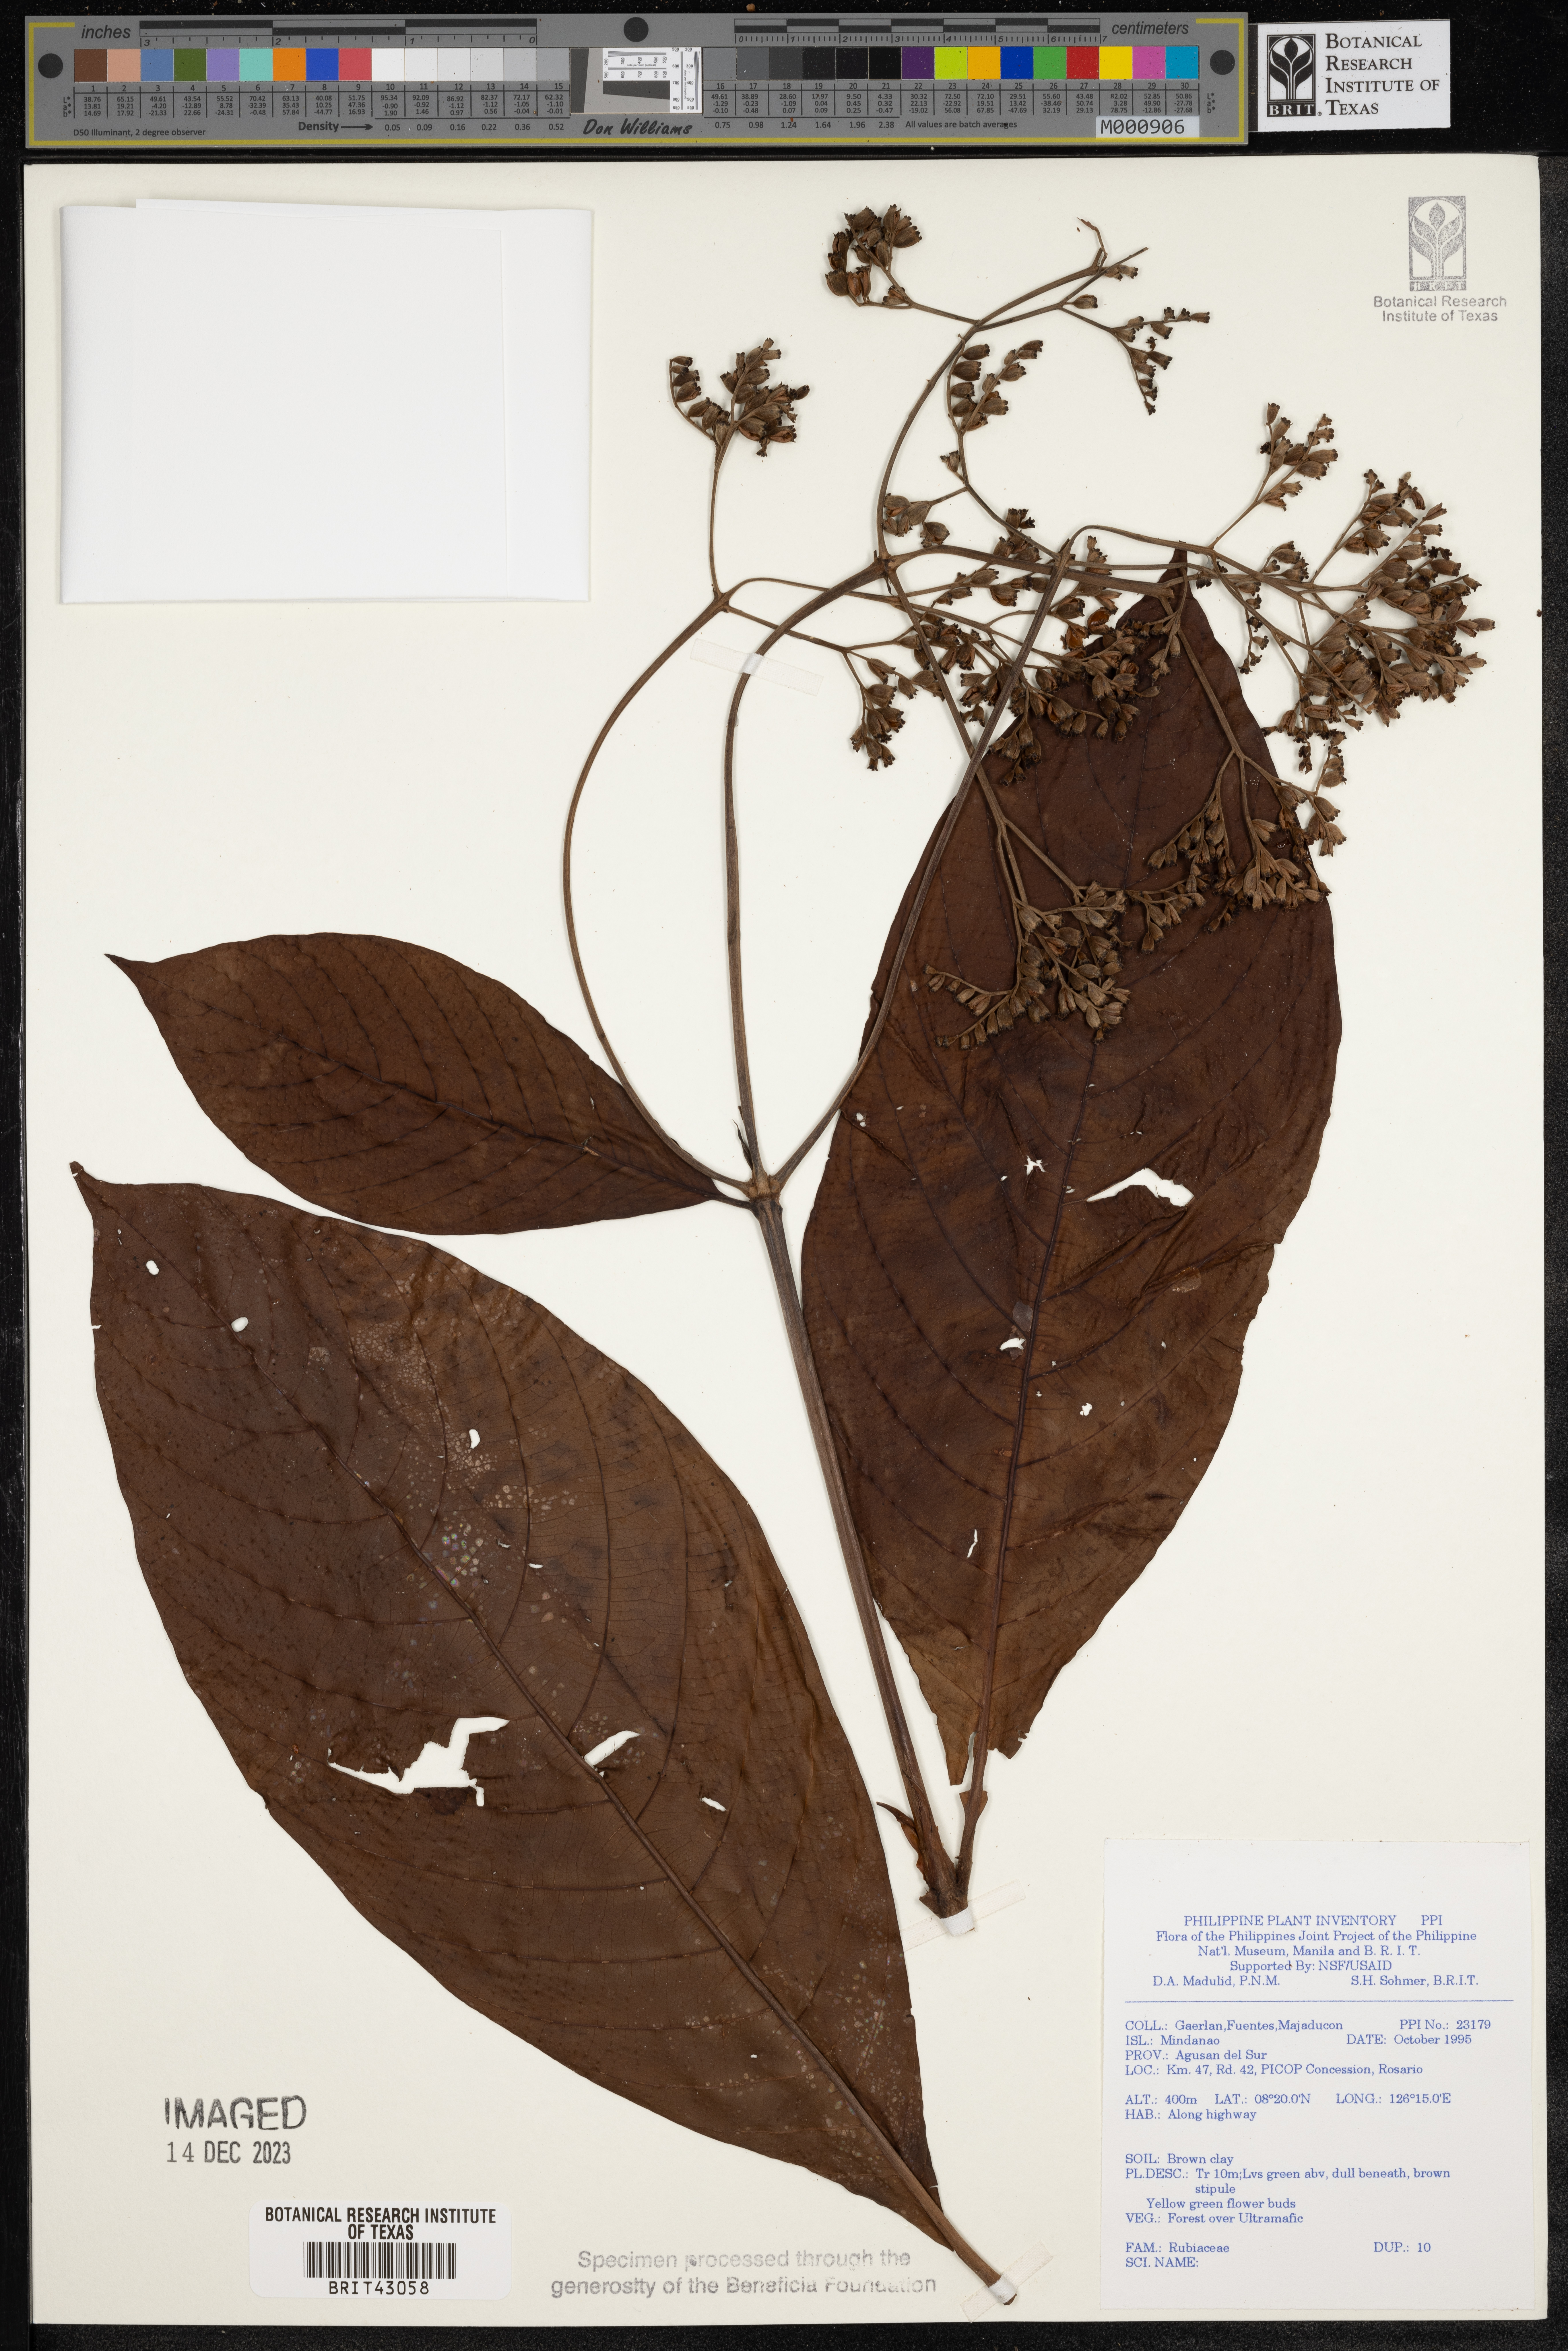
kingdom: Plantae
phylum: Tracheophyta
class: Magnoliopsida
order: Gentianales
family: Rubiaceae
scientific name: Rubiaceae
